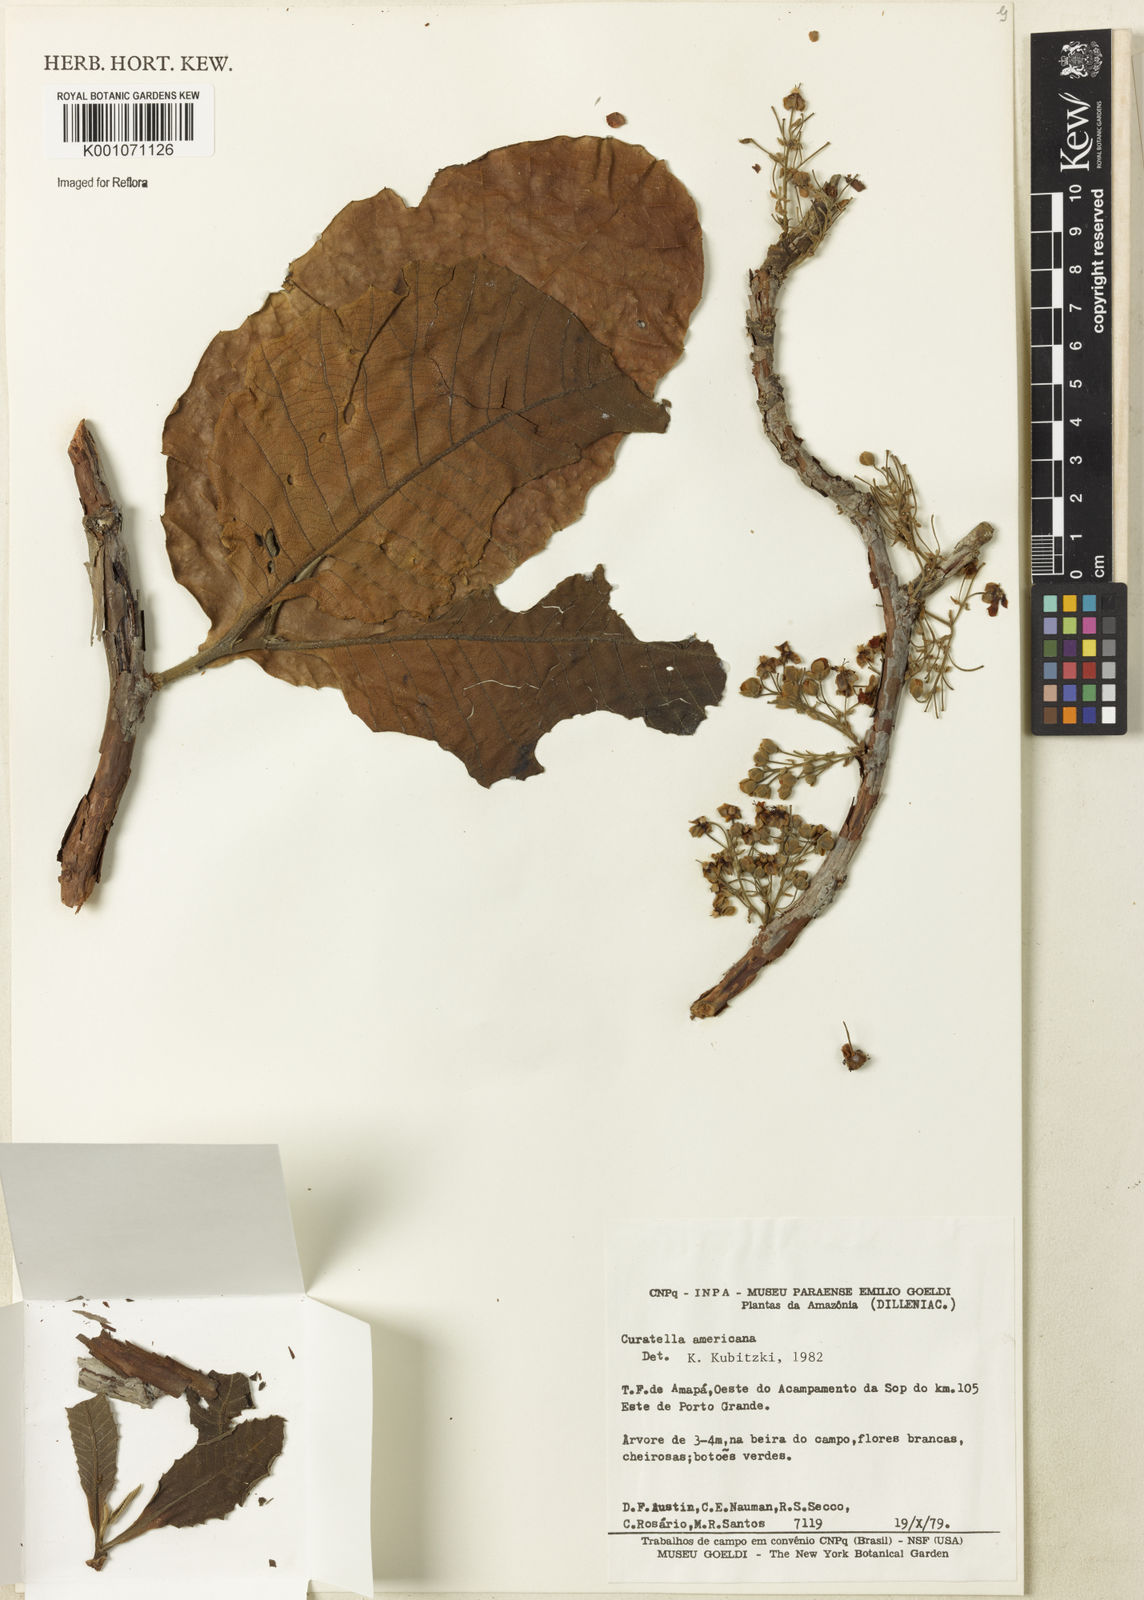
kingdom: Plantae
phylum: Tracheophyta
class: Magnoliopsida
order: Dilleniales
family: Dilleniaceae
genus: Curatella
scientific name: Curatella americana
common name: Sandpaper tree
